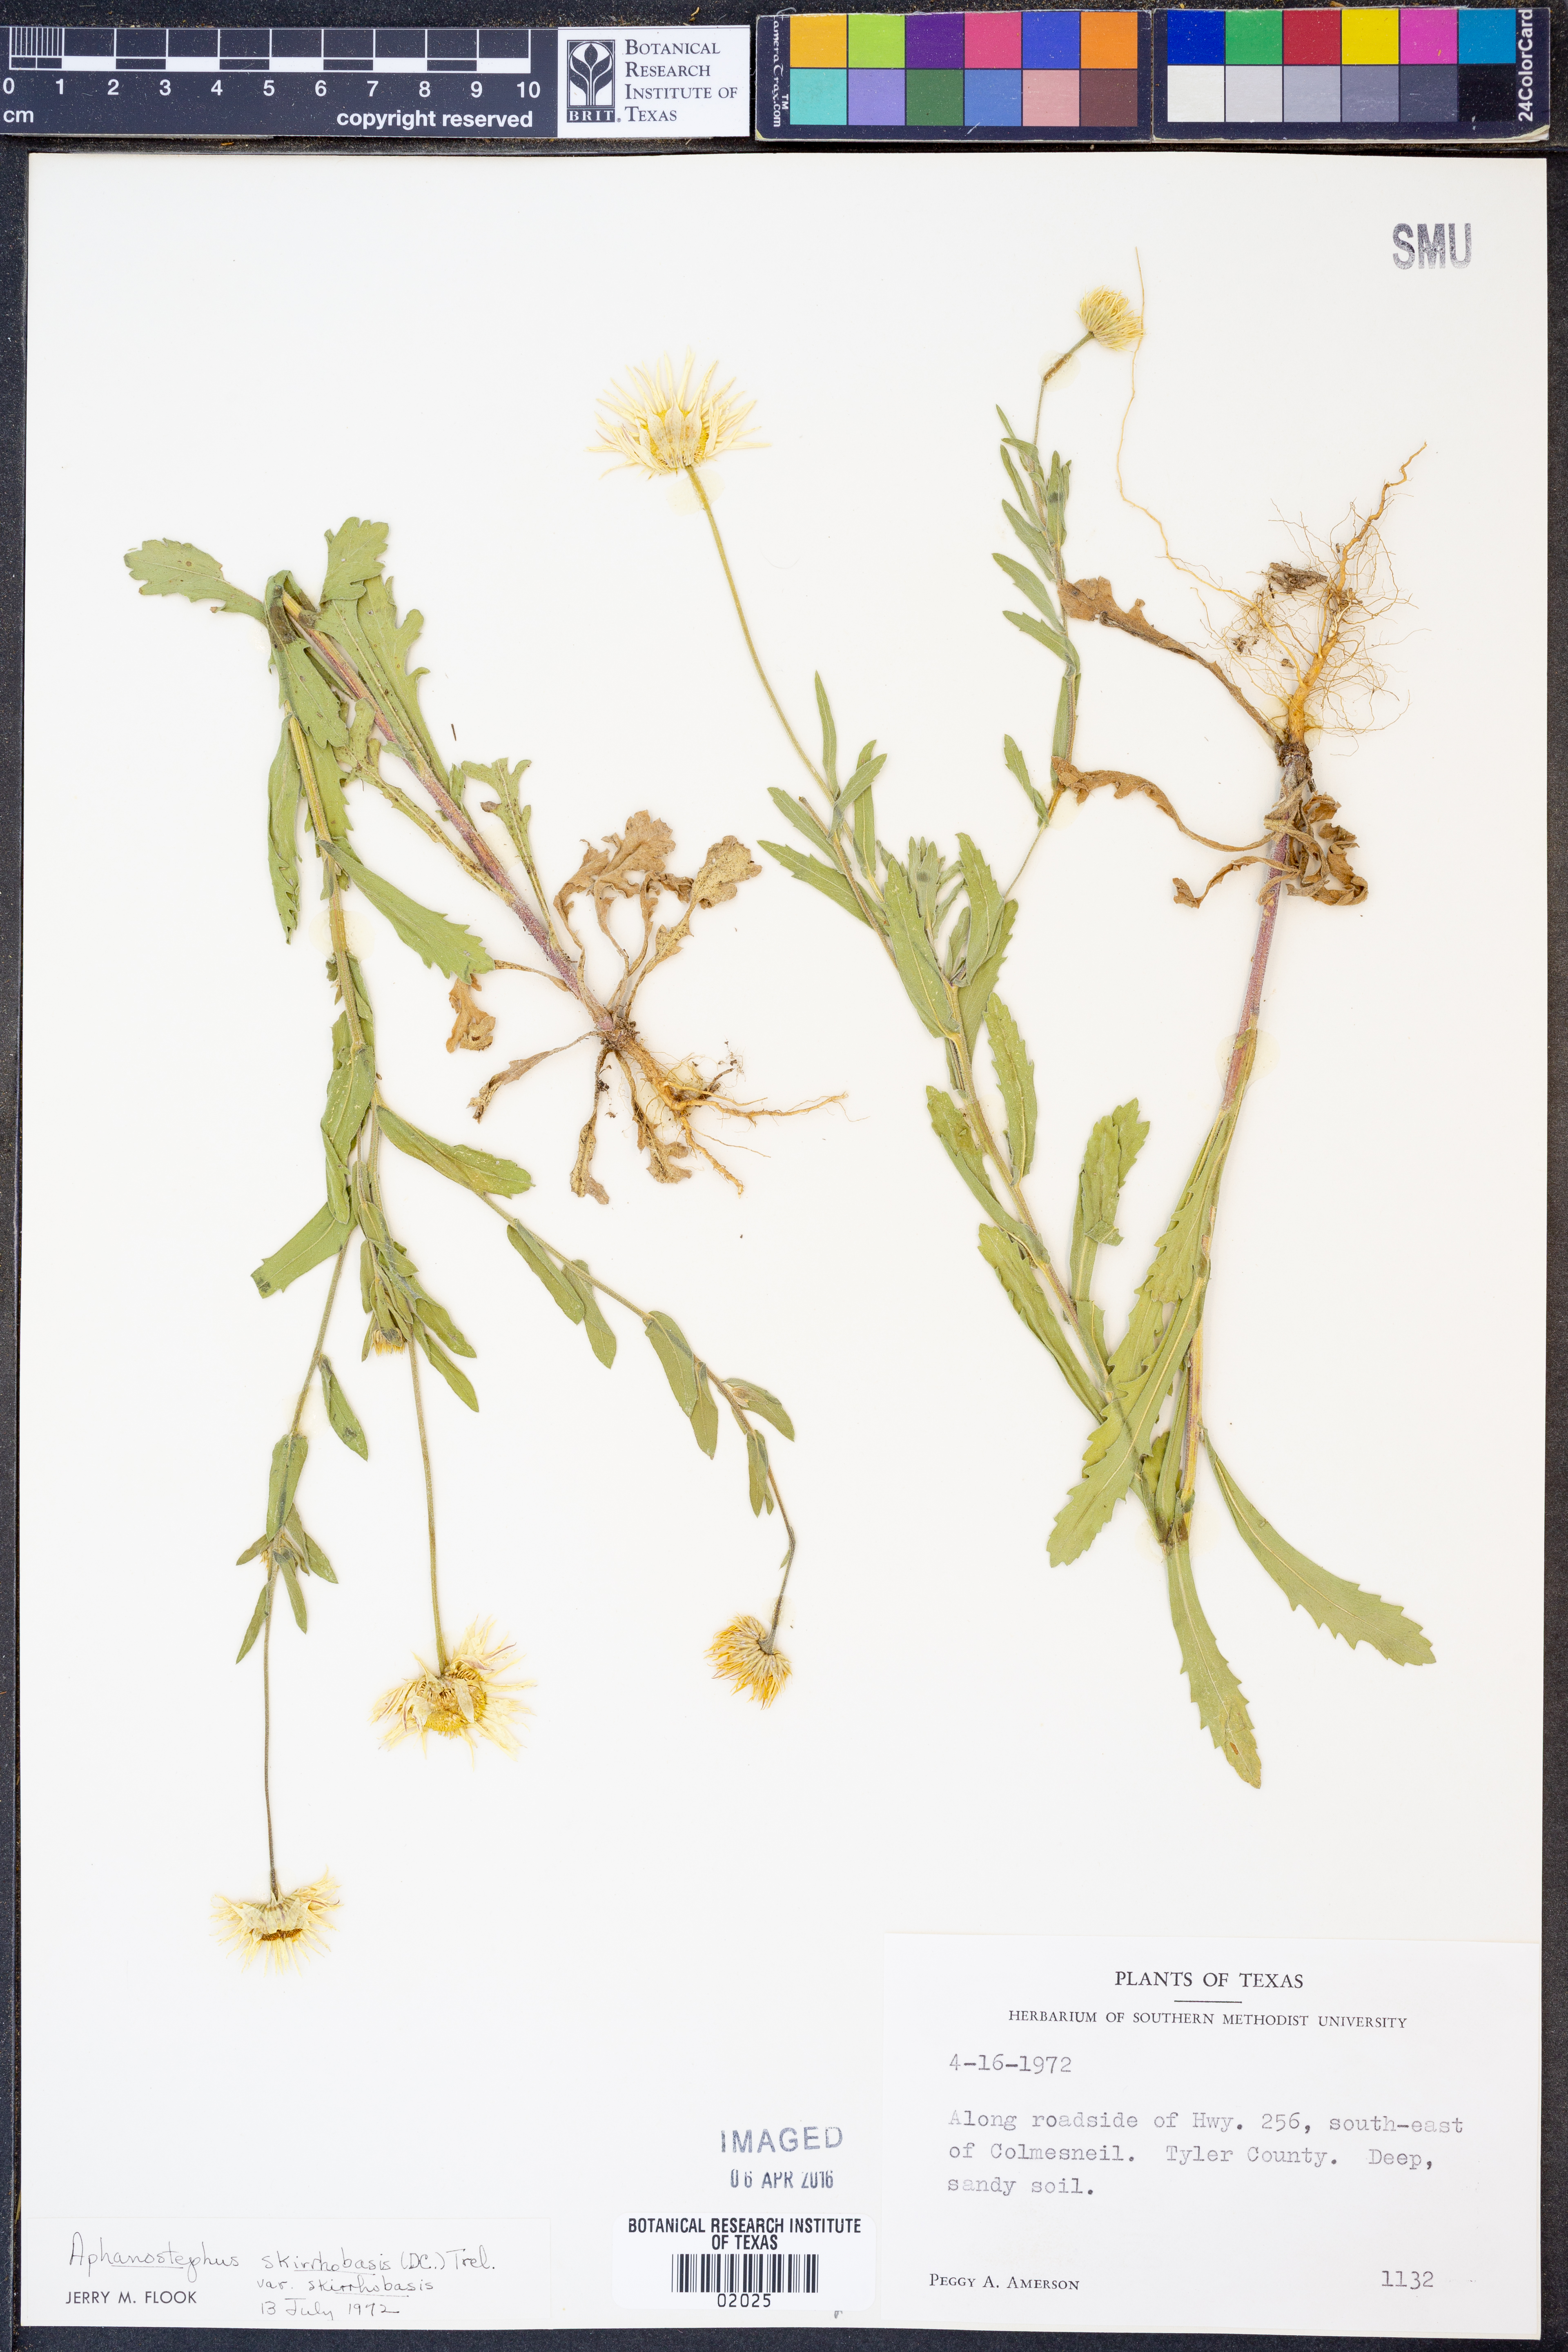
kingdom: Plantae
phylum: Tracheophyta
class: Magnoliopsida
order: Asterales
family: Asteraceae
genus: Aphanostephus
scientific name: Aphanostephus skirrhobasis
